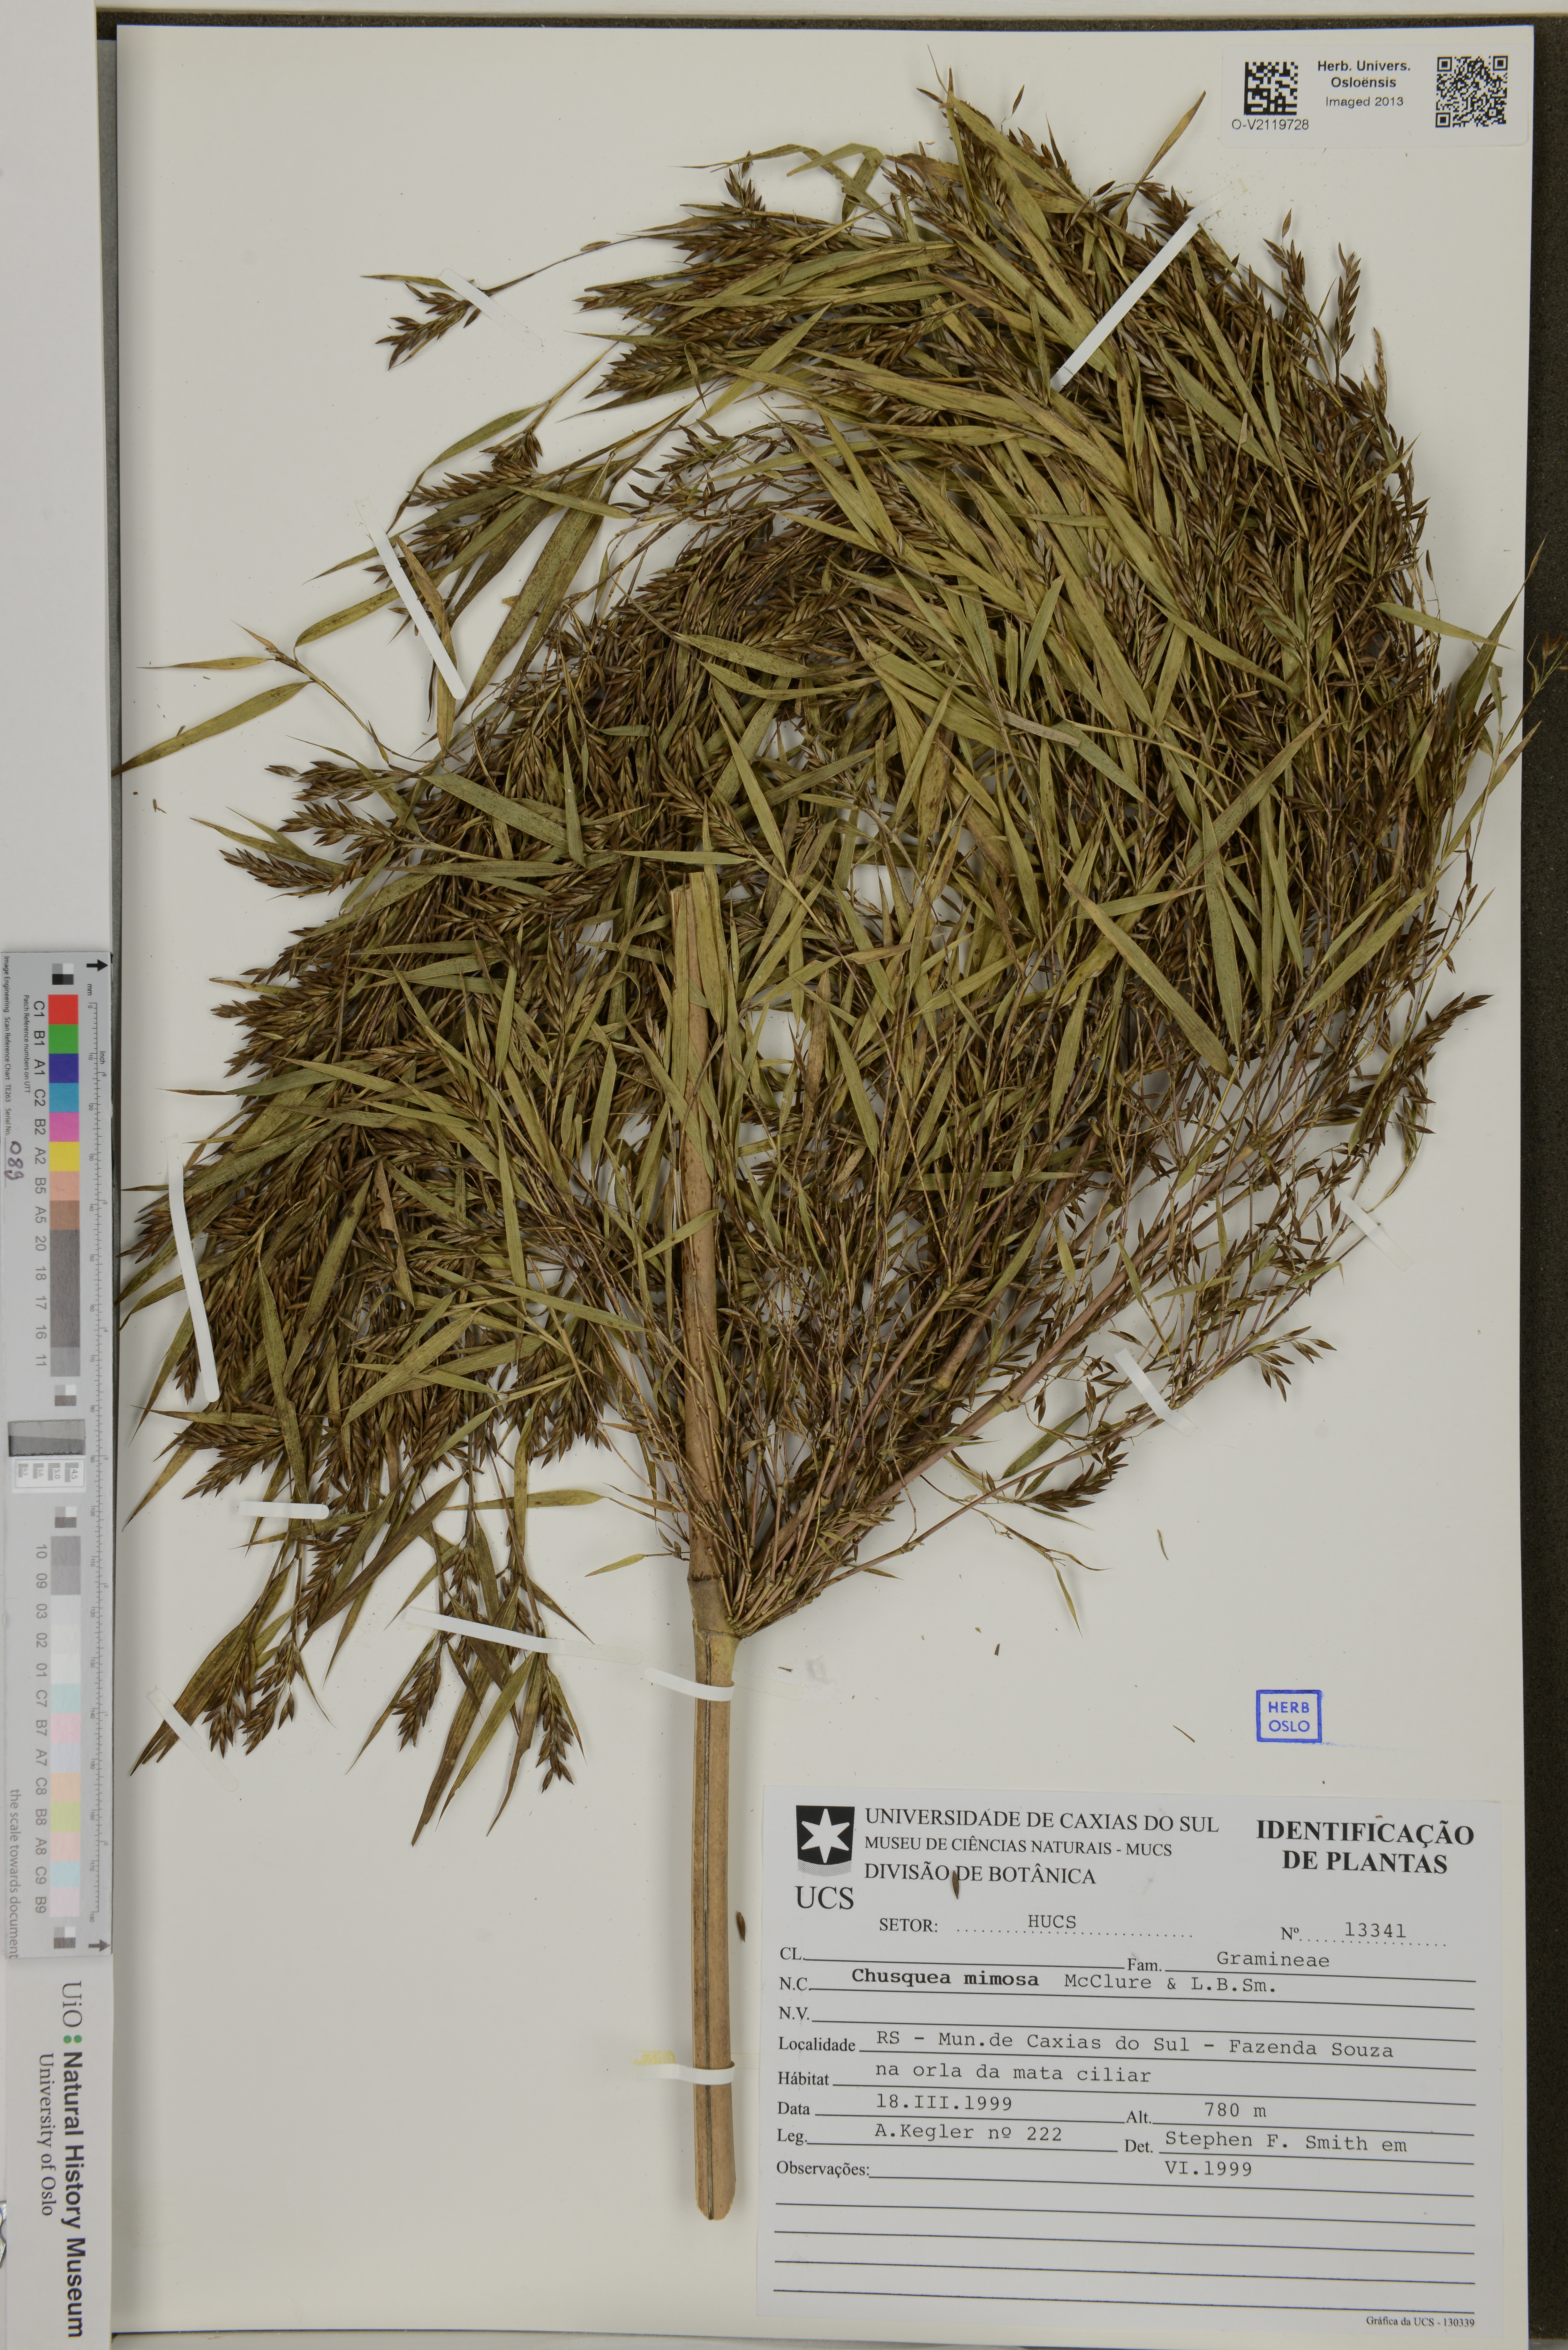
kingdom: Plantae
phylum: Tracheophyta
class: Liliopsida
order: Poales
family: Poaceae
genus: Chusquea
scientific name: Chusquea mimosa
